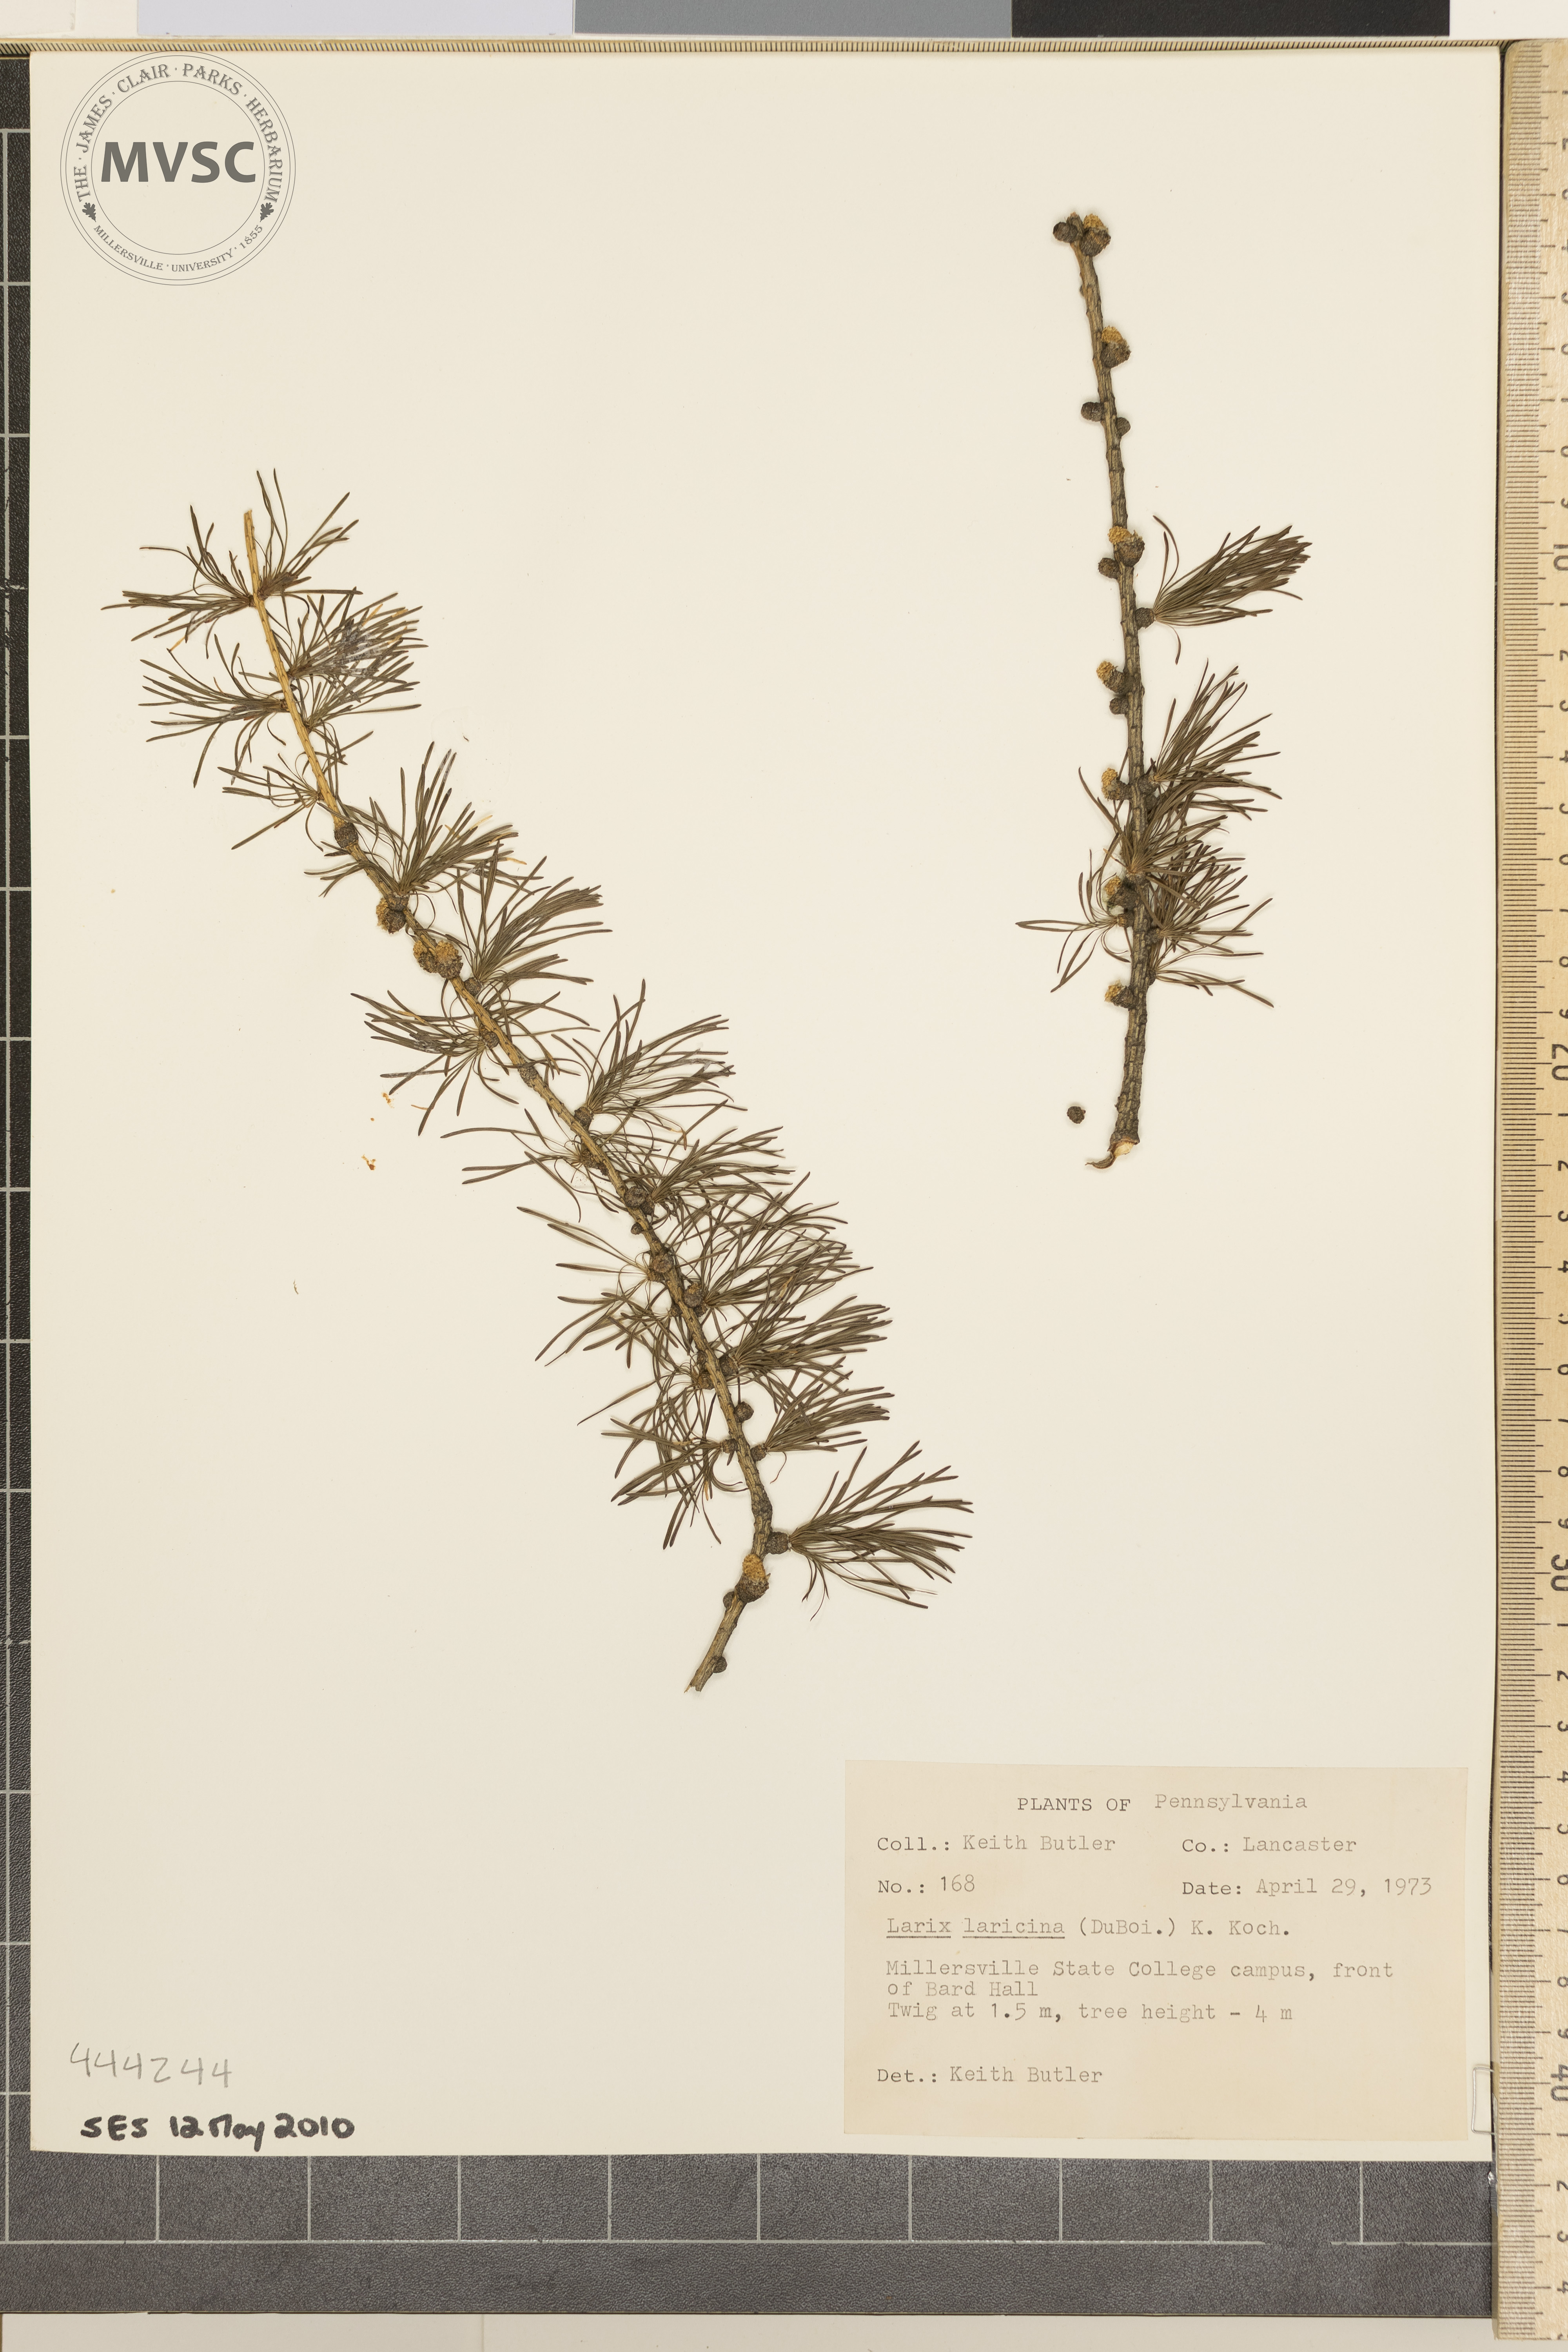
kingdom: Plantae
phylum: Tracheophyta
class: Pinopsida
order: Pinales
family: Pinaceae
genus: Larix
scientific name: Larix laricina
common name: American larch
